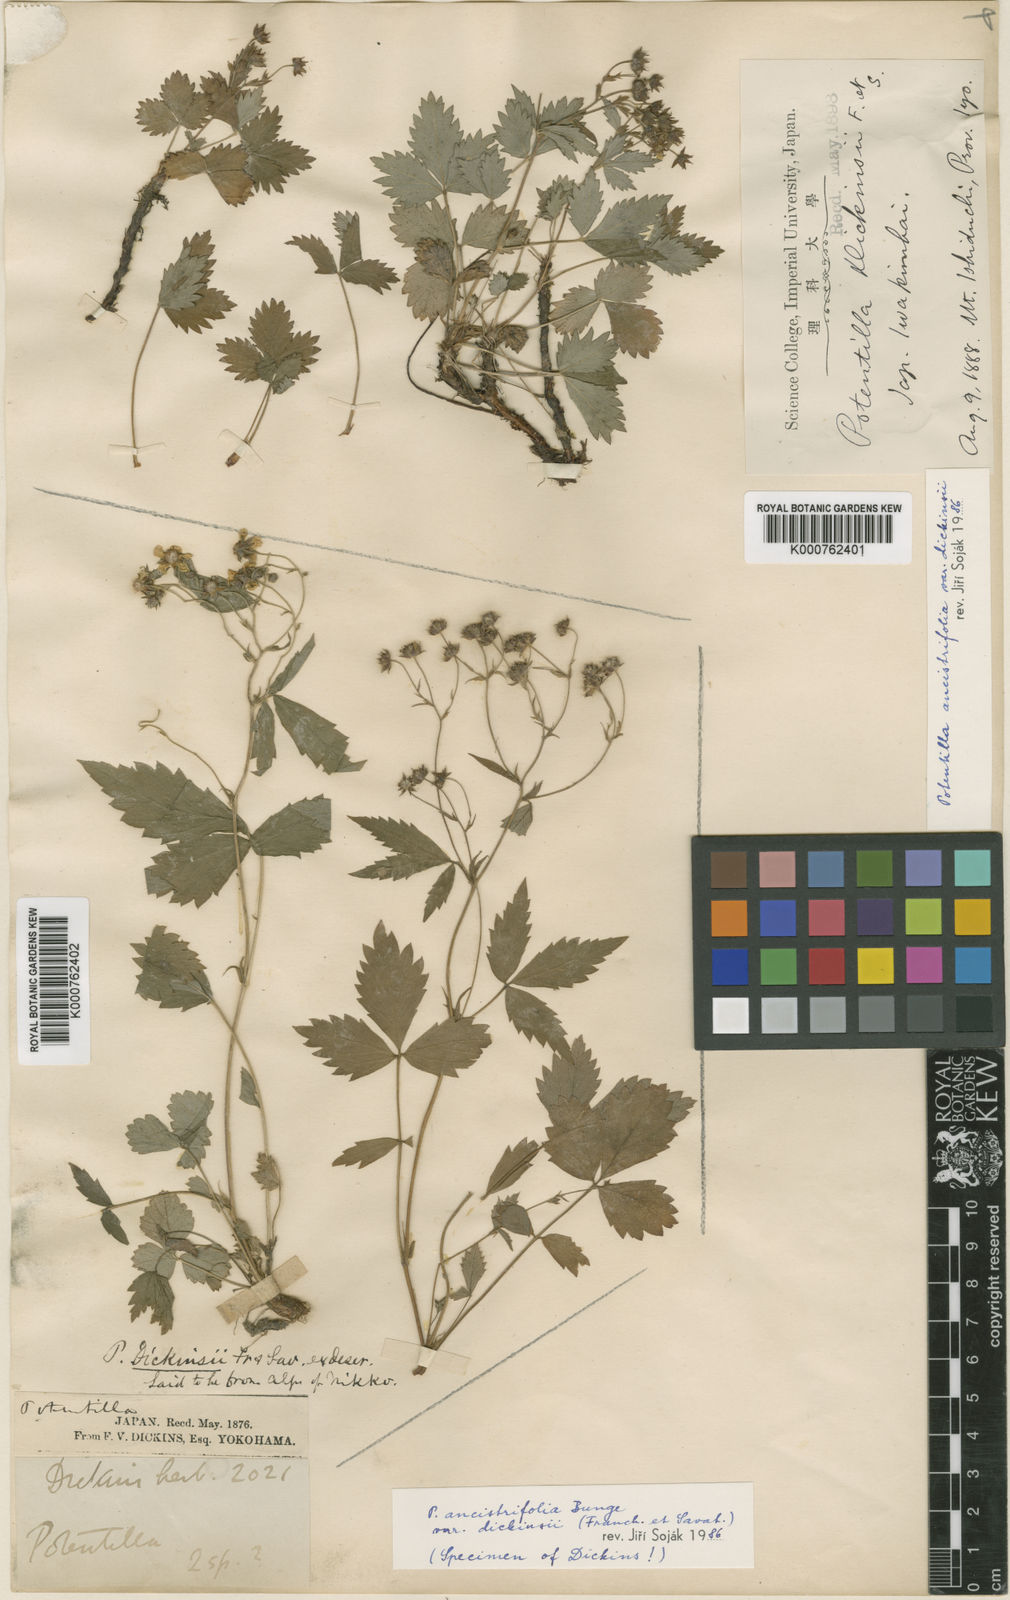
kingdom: Plantae
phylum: Tracheophyta
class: Magnoliopsida
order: Rosales
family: Rosaceae
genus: Potentilla
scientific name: Potentilla dickinsii
